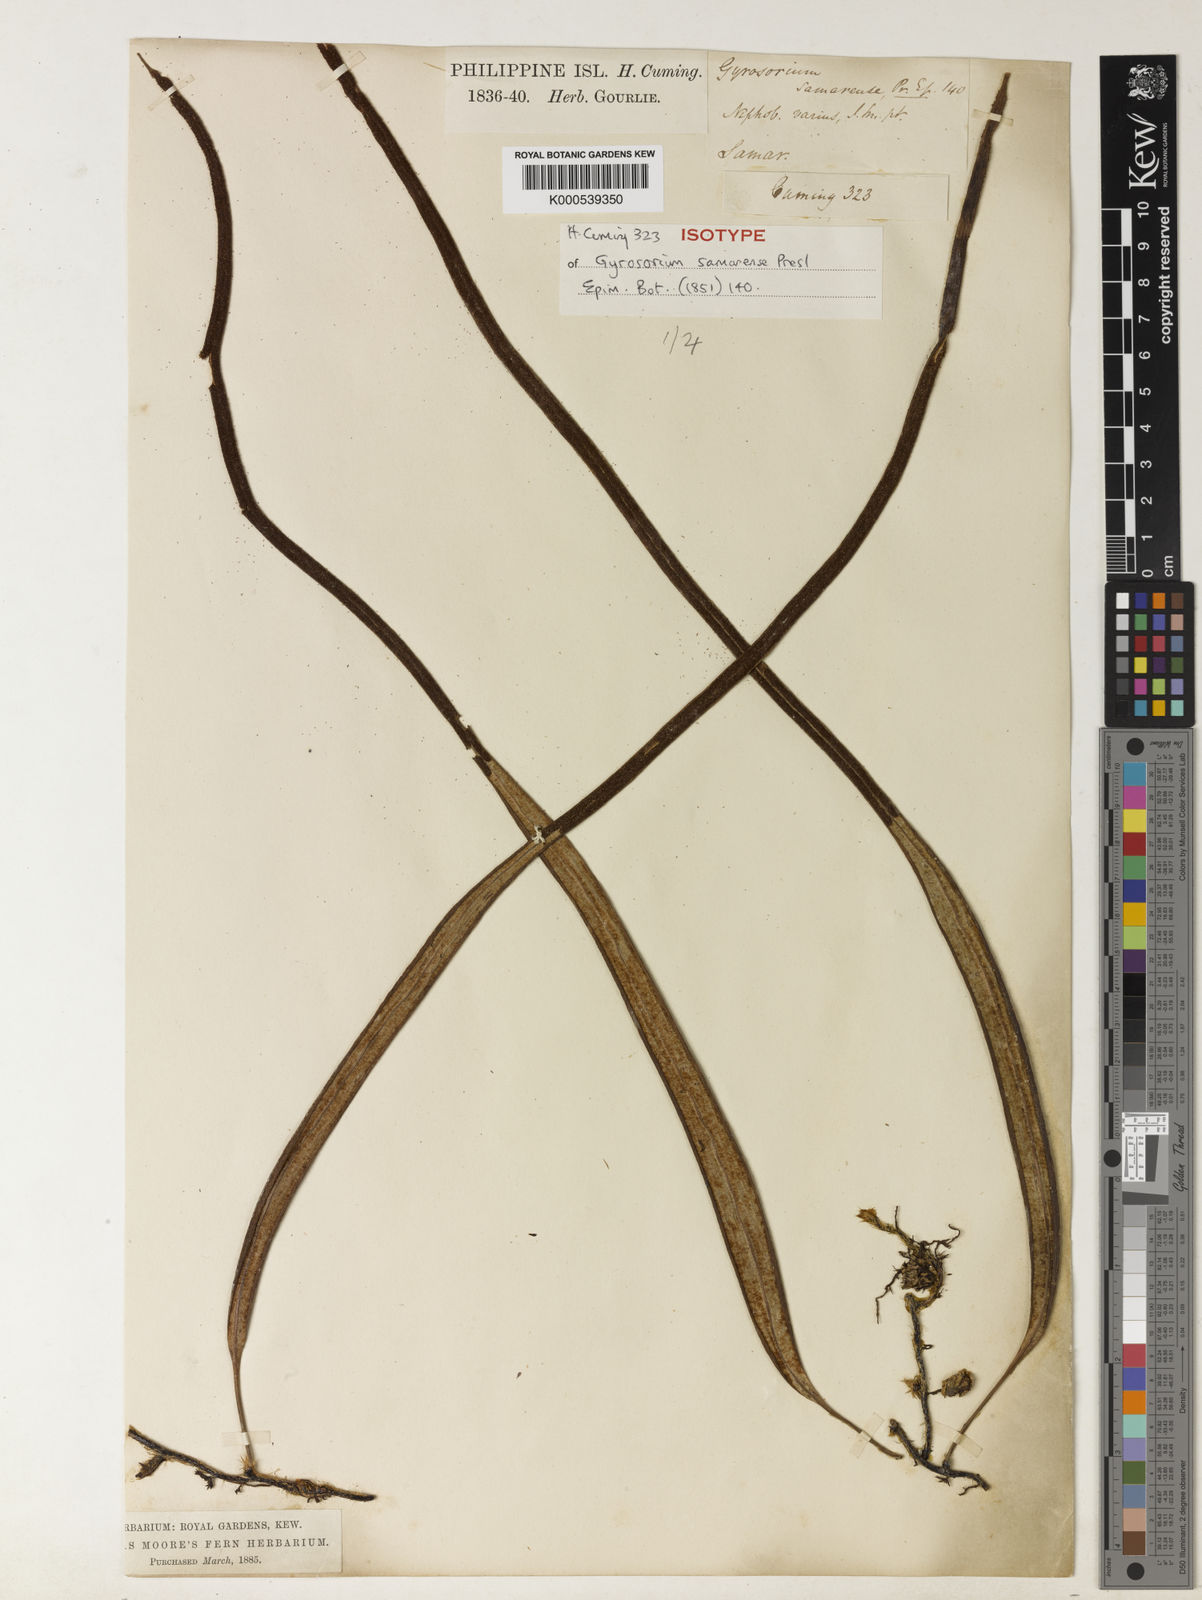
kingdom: Plantae
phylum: Tracheophyta
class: Polypodiopsida
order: Polypodiales
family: Polypodiaceae
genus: Pyrrosia
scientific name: Pyrrosia samarensis
